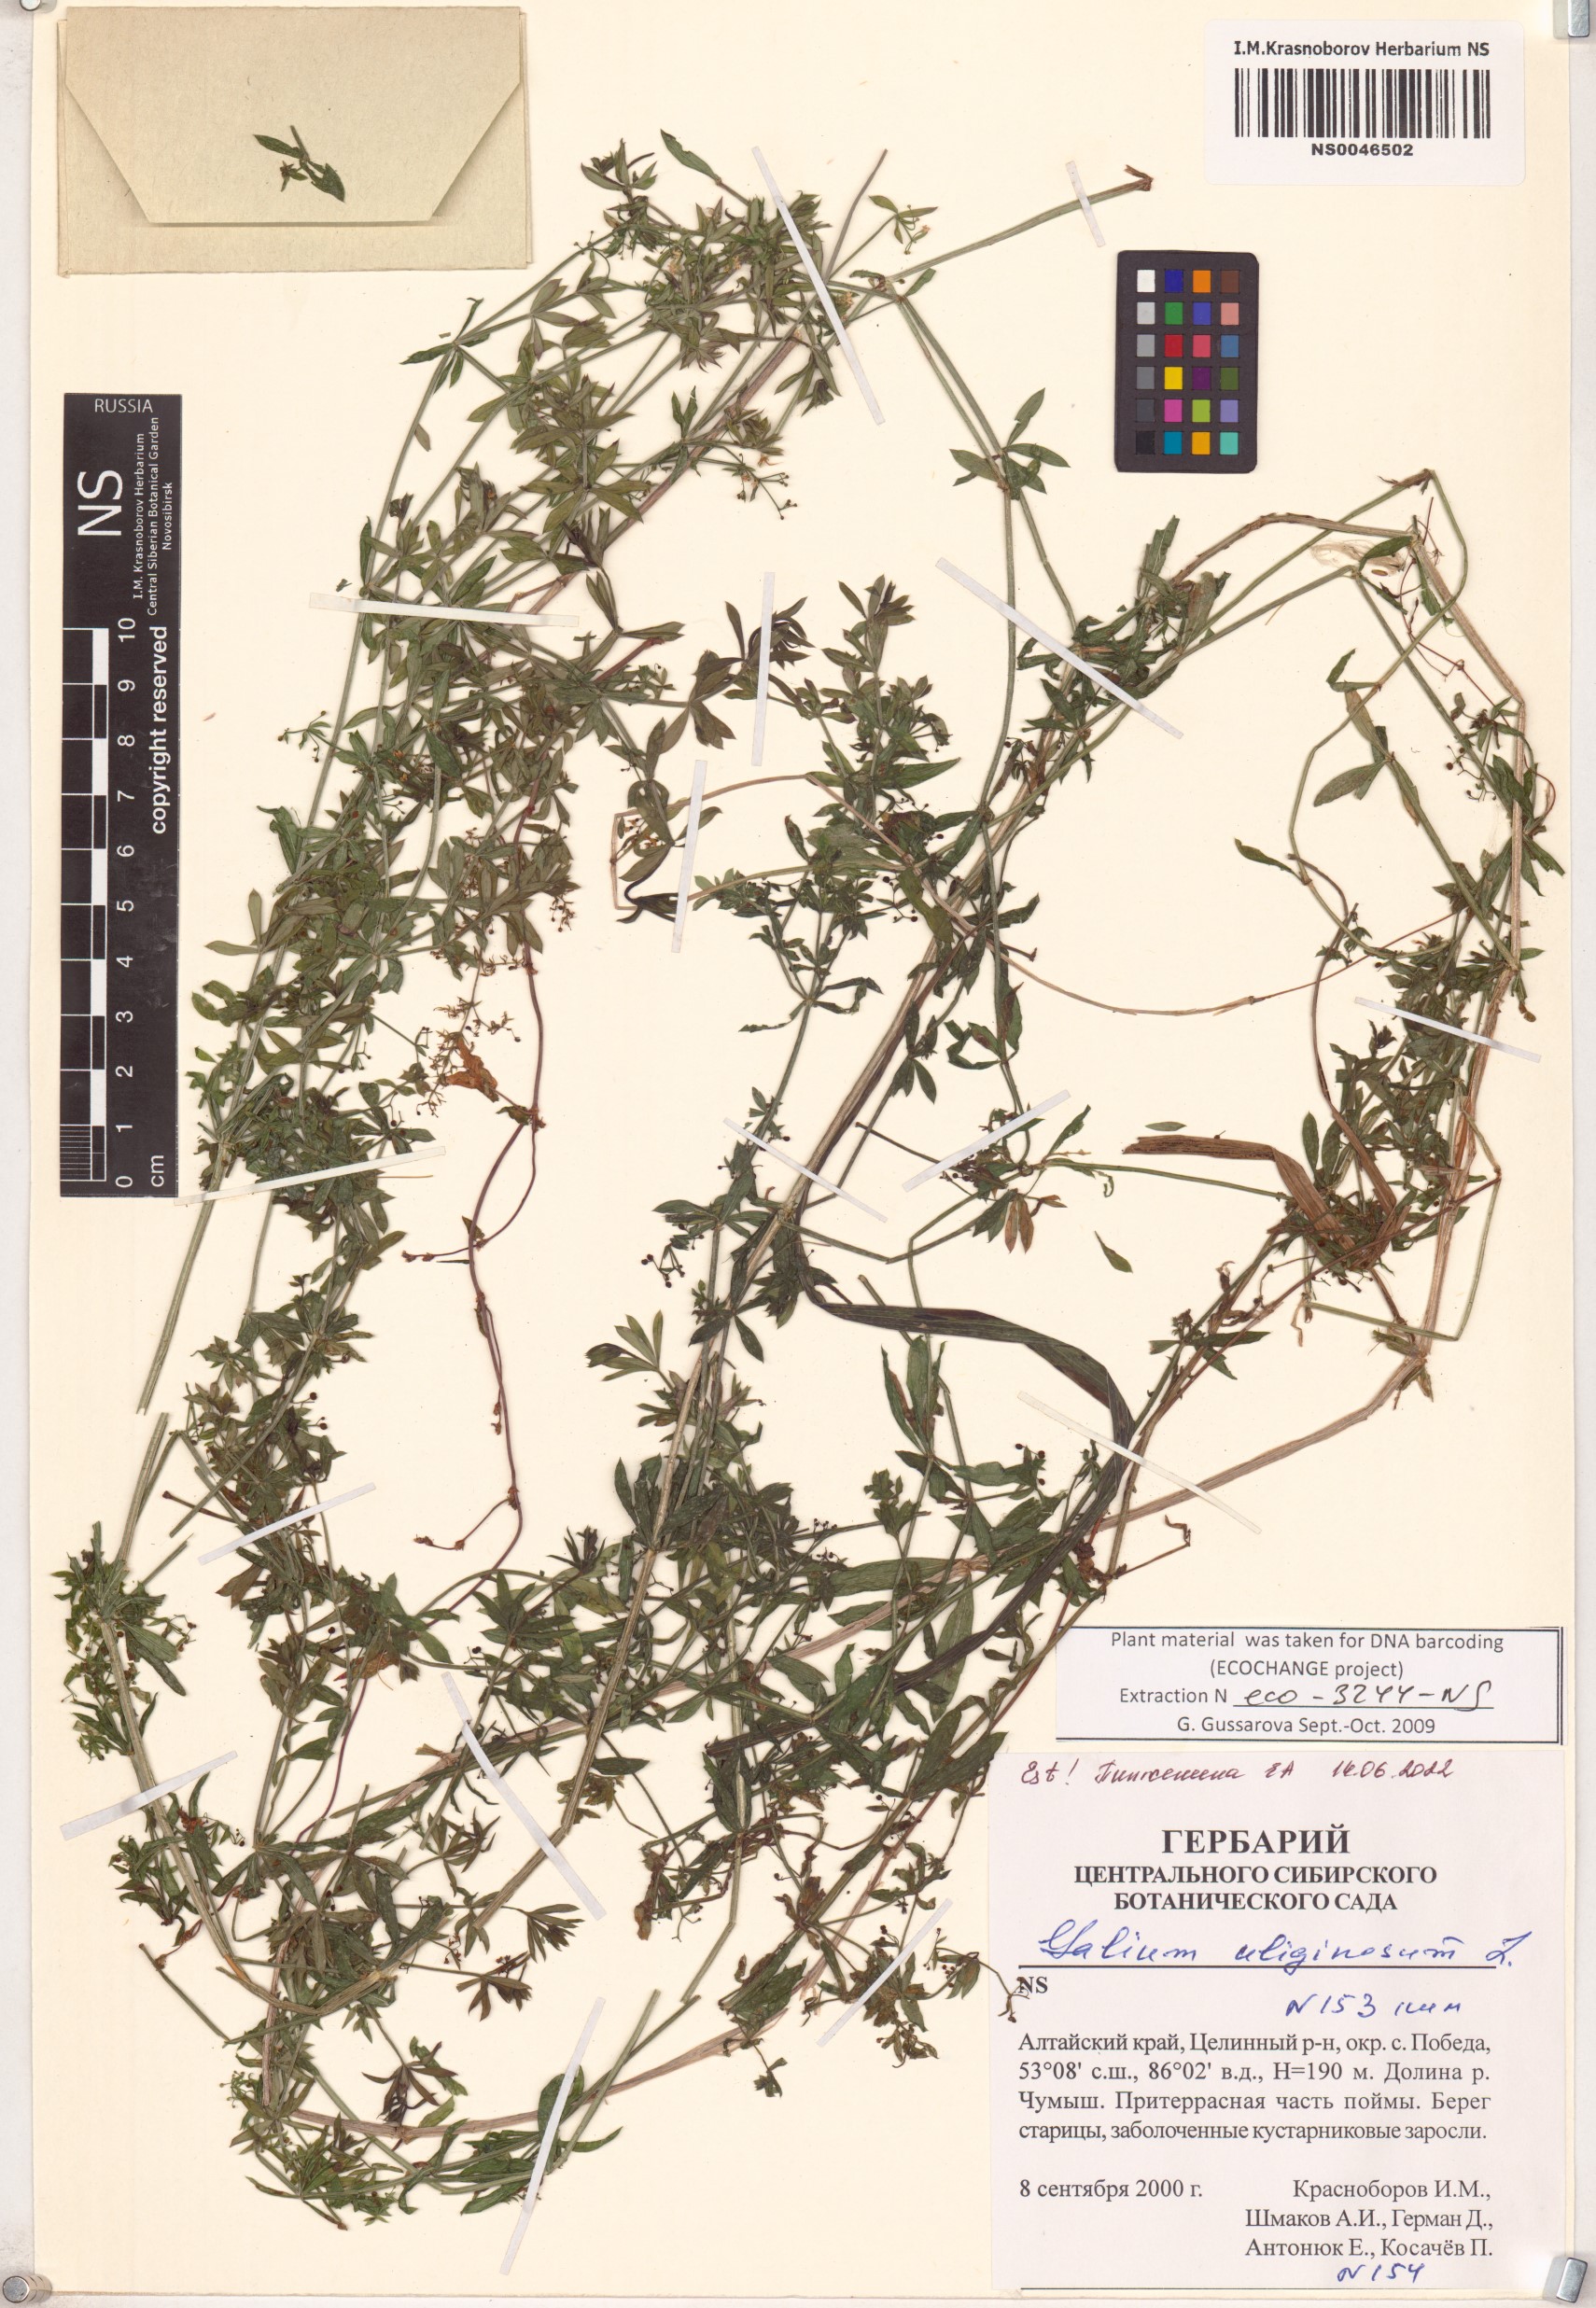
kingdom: Plantae
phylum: Tracheophyta
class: Magnoliopsida
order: Gentianales
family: Rubiaceae
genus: Galium
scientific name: Galium uliginosum
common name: Fen bedstraw
